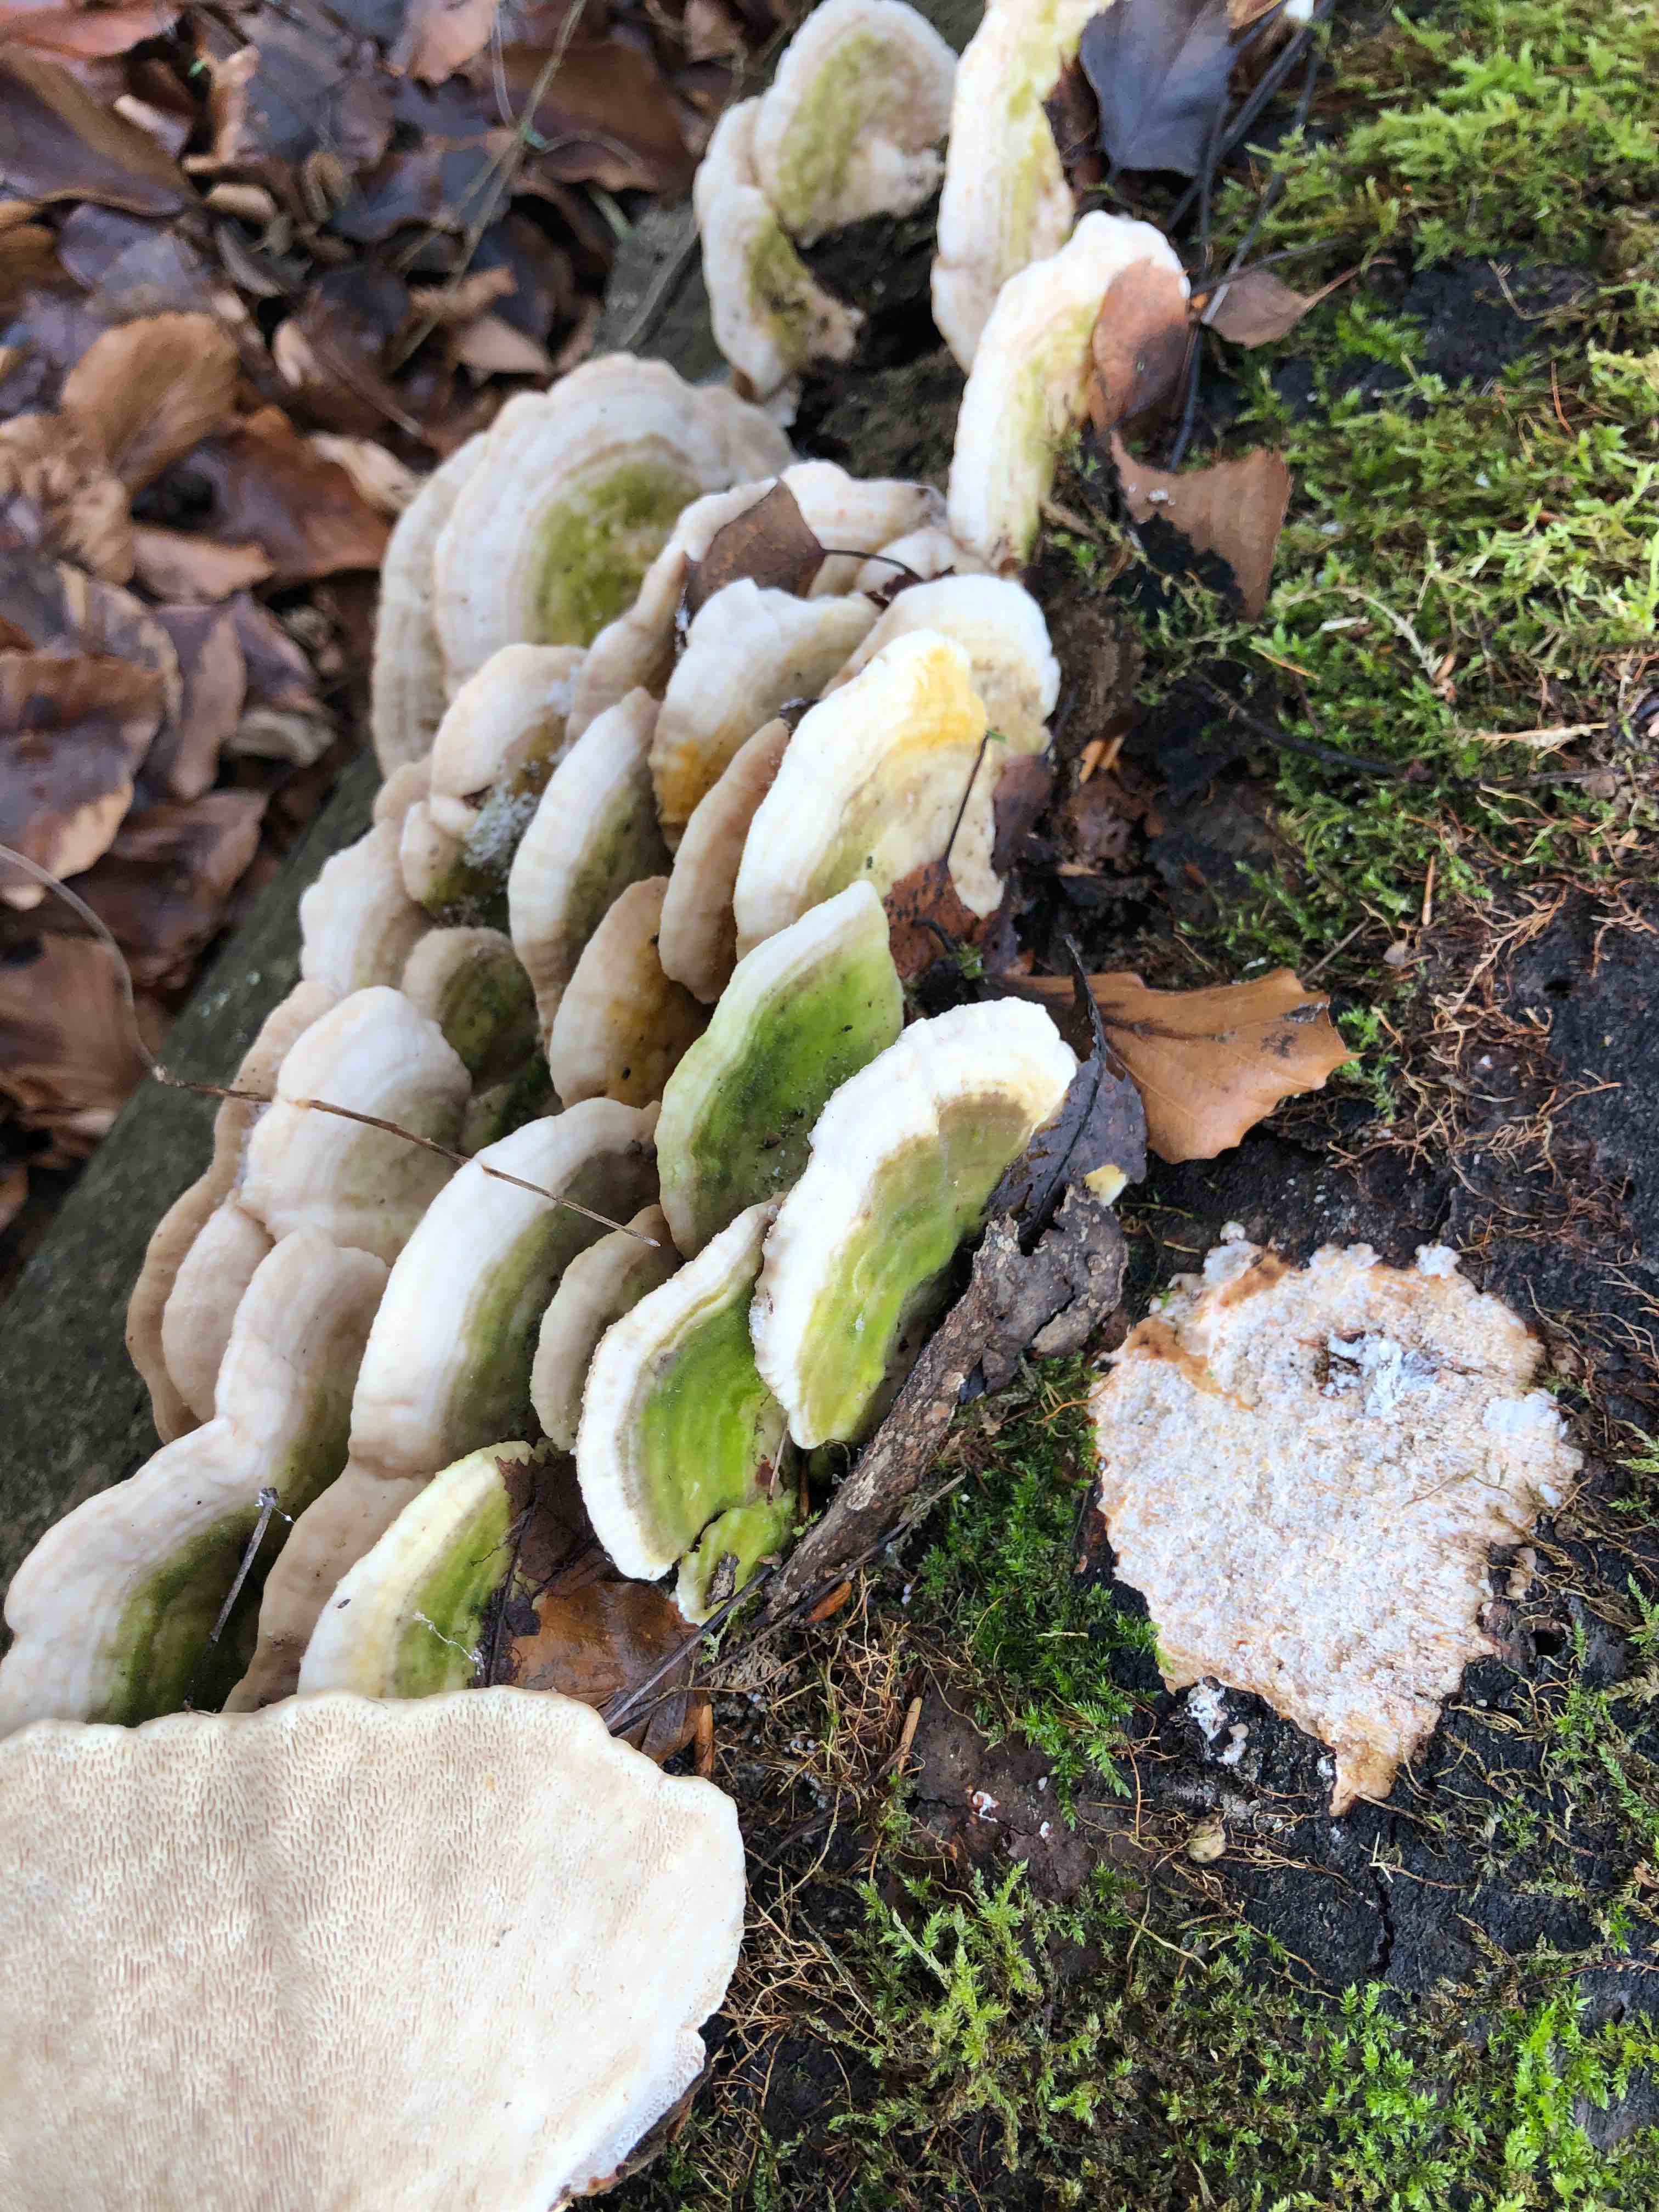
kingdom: Fungi
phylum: Basidiomycota
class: Agaricomycetes
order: Polyporales
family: Polyporaceae
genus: Trametes
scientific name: Trametes gibbosa
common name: puklet læderporesvamp
